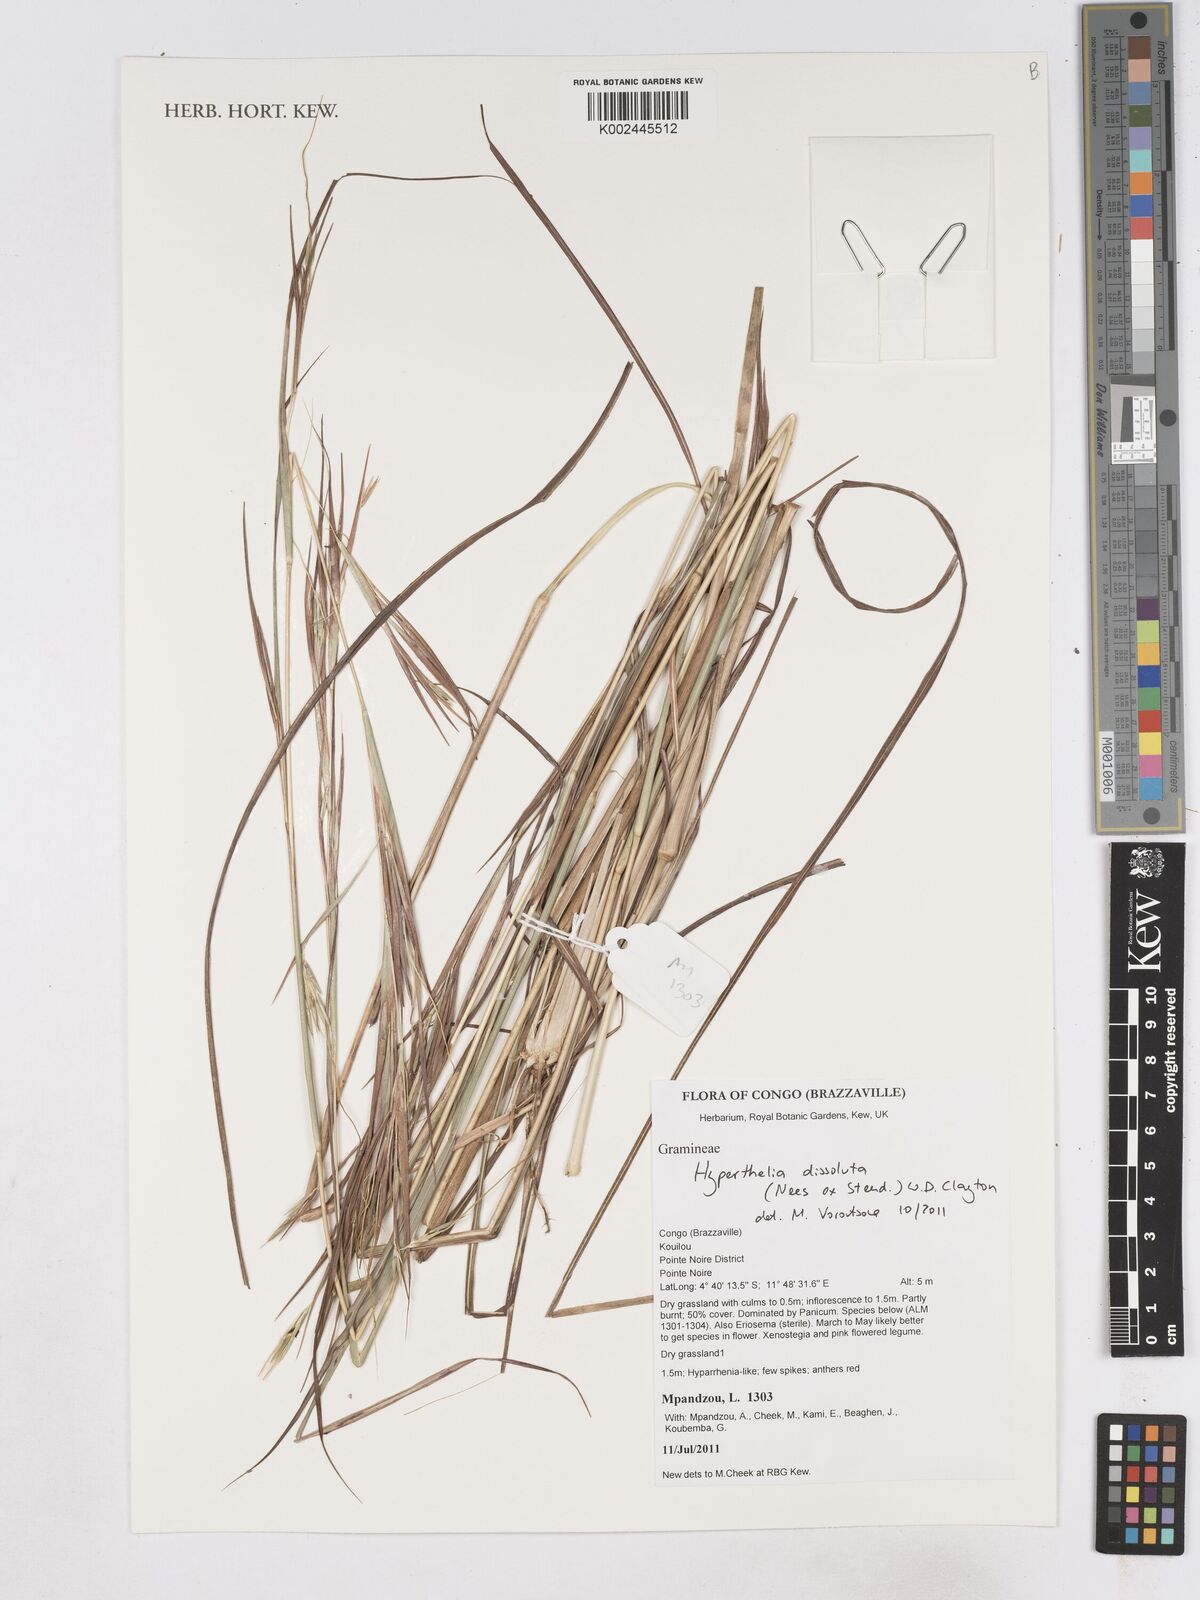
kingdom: Plantae
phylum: Tracheophyta
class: Liliopsida
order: Poales
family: Poaceae
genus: Hyperthelia
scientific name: Hyperthelia dissoluta
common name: Yellow thatching grass
